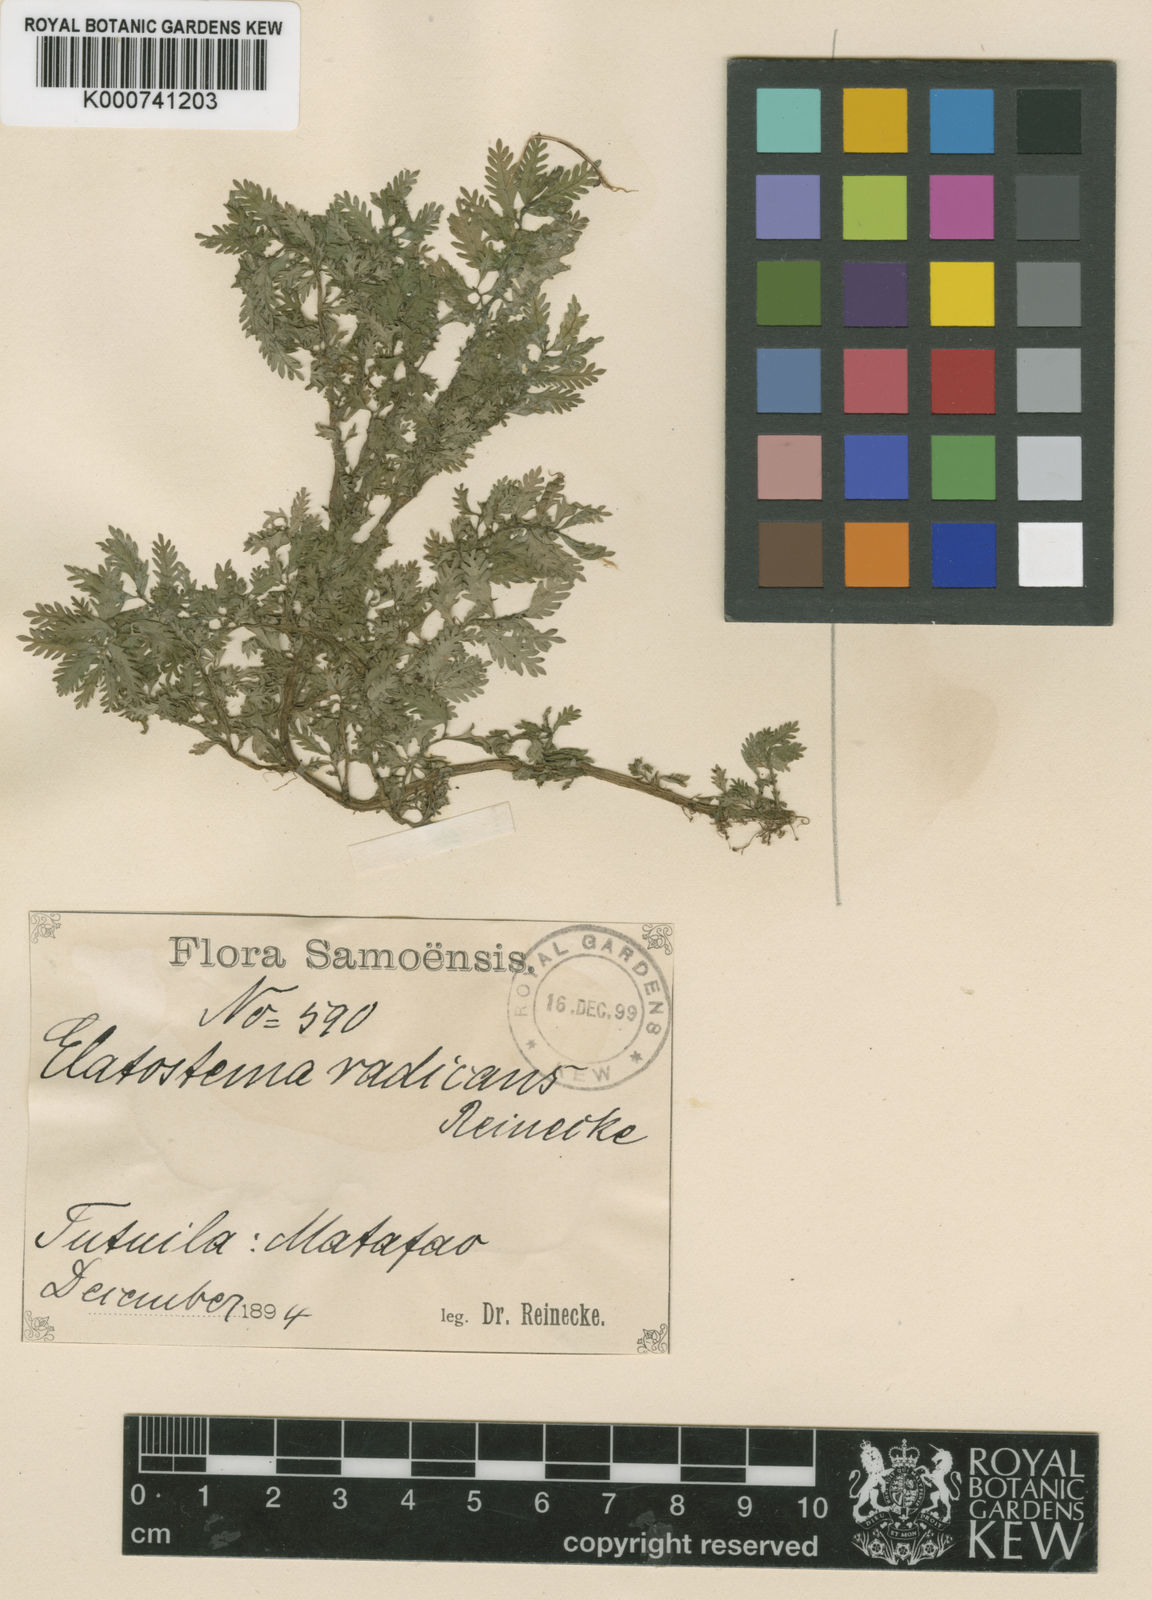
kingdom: Plantae
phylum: Tracheophyta
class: Magnoliopsida
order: Rosales
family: Urticaceae
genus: Elatostema
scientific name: Elatostema tutuilense
